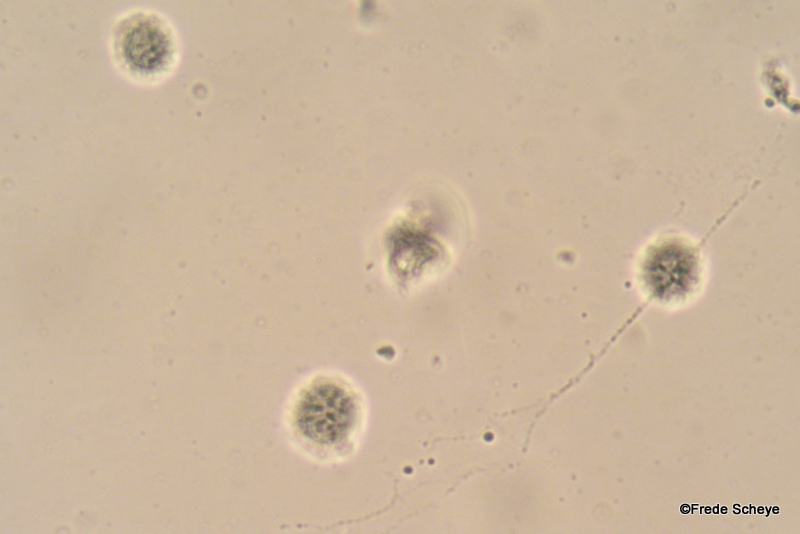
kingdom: Fungi
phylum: Basidiomycota
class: Agaricomycetes
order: Russulales
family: Russulaceae
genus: Lactarius
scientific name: Lactarius camphoratus
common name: kamfer-mælkehat
